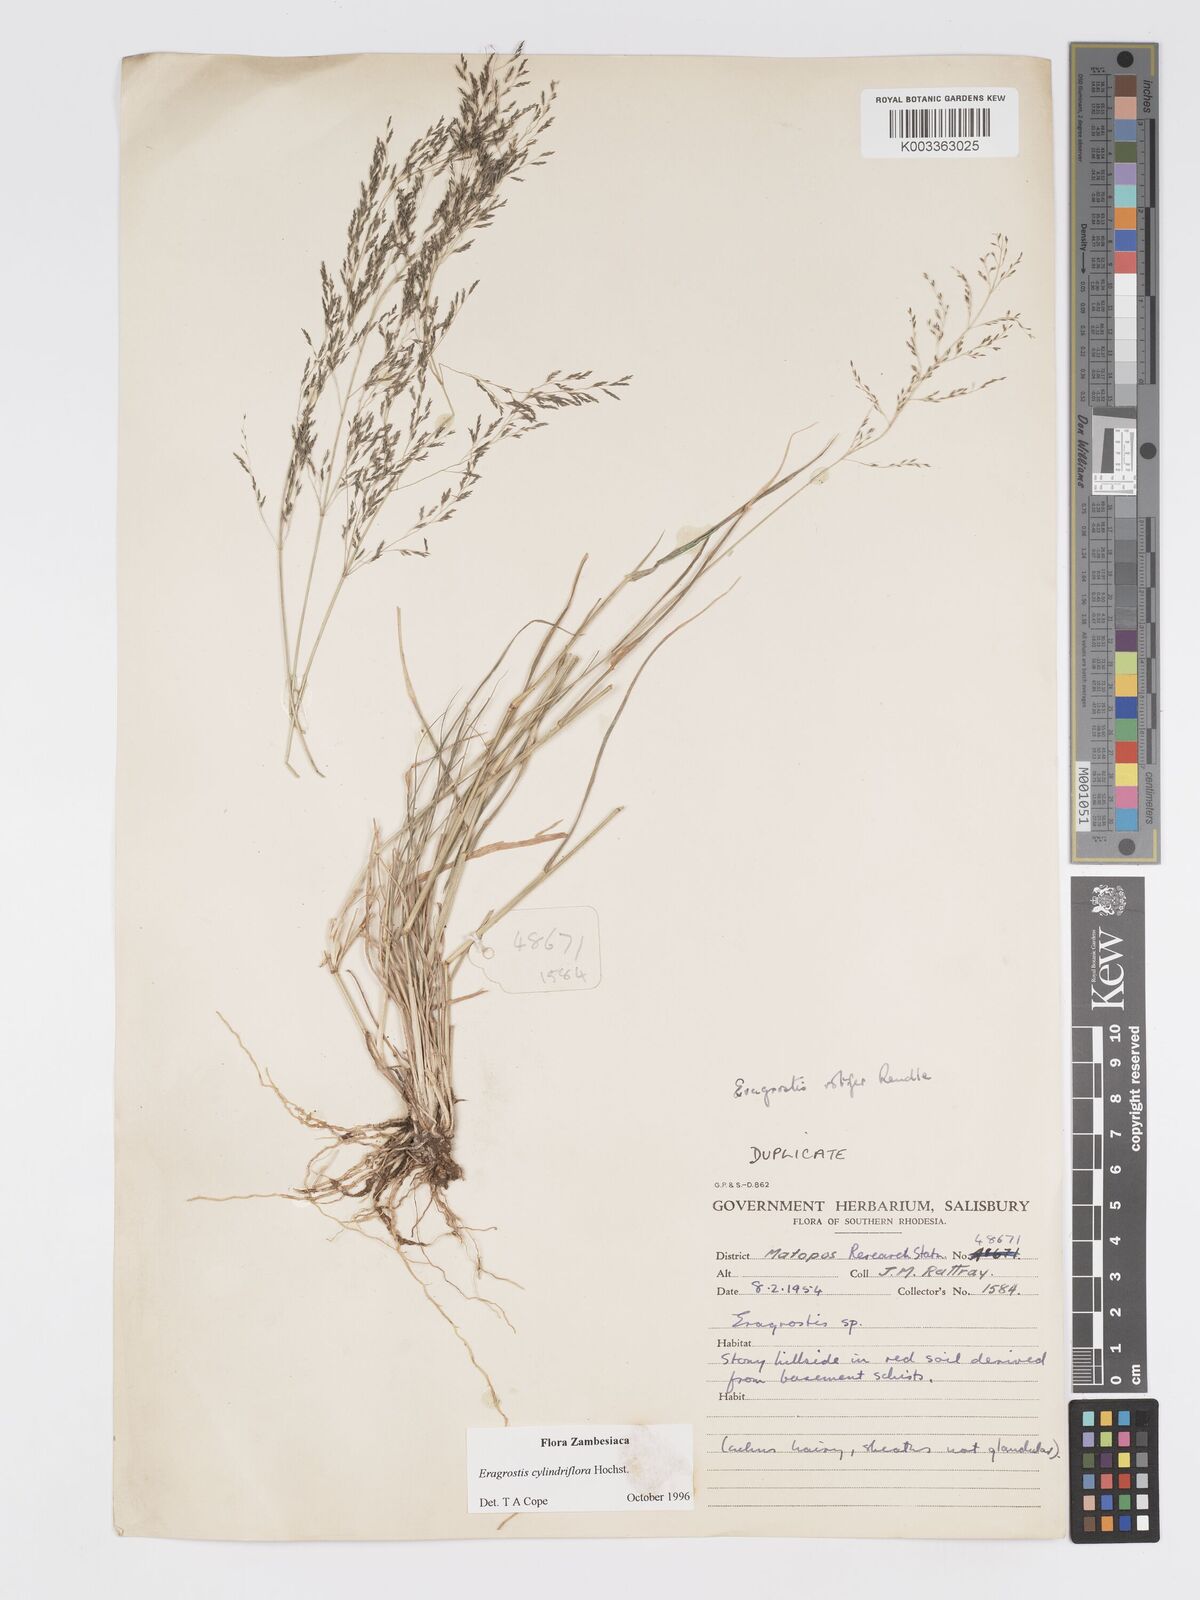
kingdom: Plantae
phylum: Tracheophyta
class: Liliopsida
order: Poales
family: Poaceae
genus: Eragrostis
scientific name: Eragrostis cylindriflora
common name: Cylinderflower lovegrass
